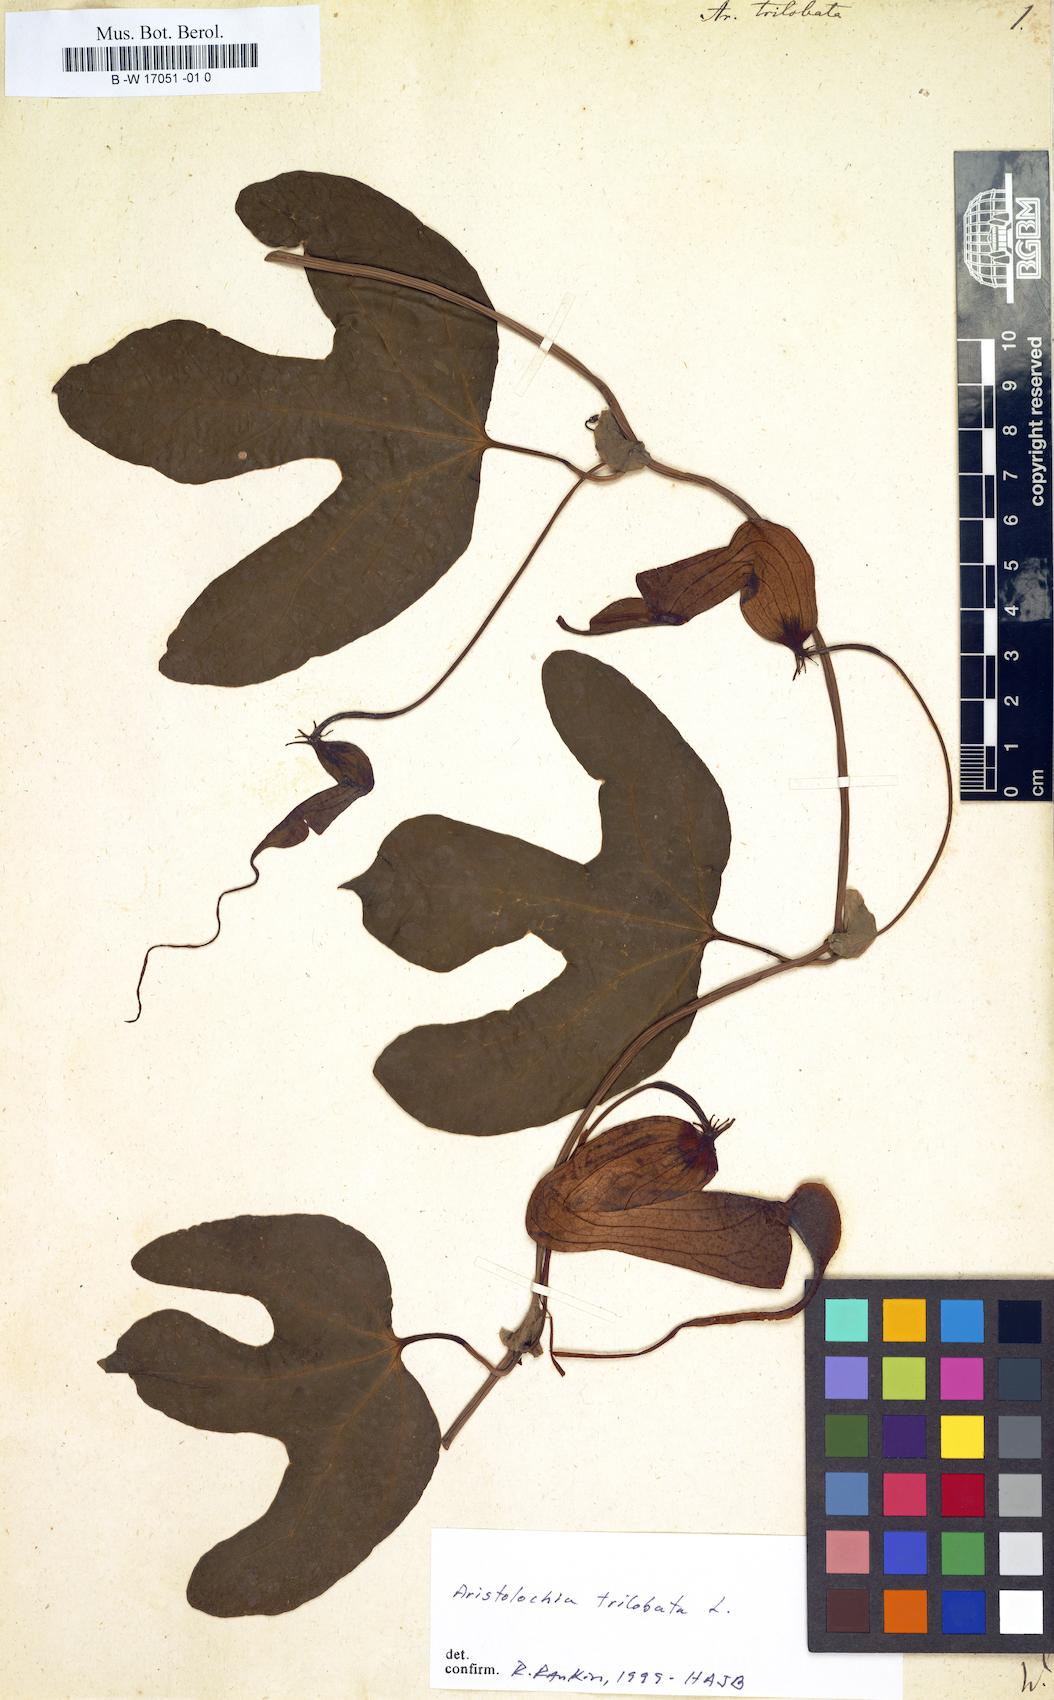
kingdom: Plantae
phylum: Tracheophyta
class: Magnoliopsida
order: Piperales
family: Aristolochiaceae
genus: Aristolochia
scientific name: Aristolochia trilobata
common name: Dutchman's pipe
